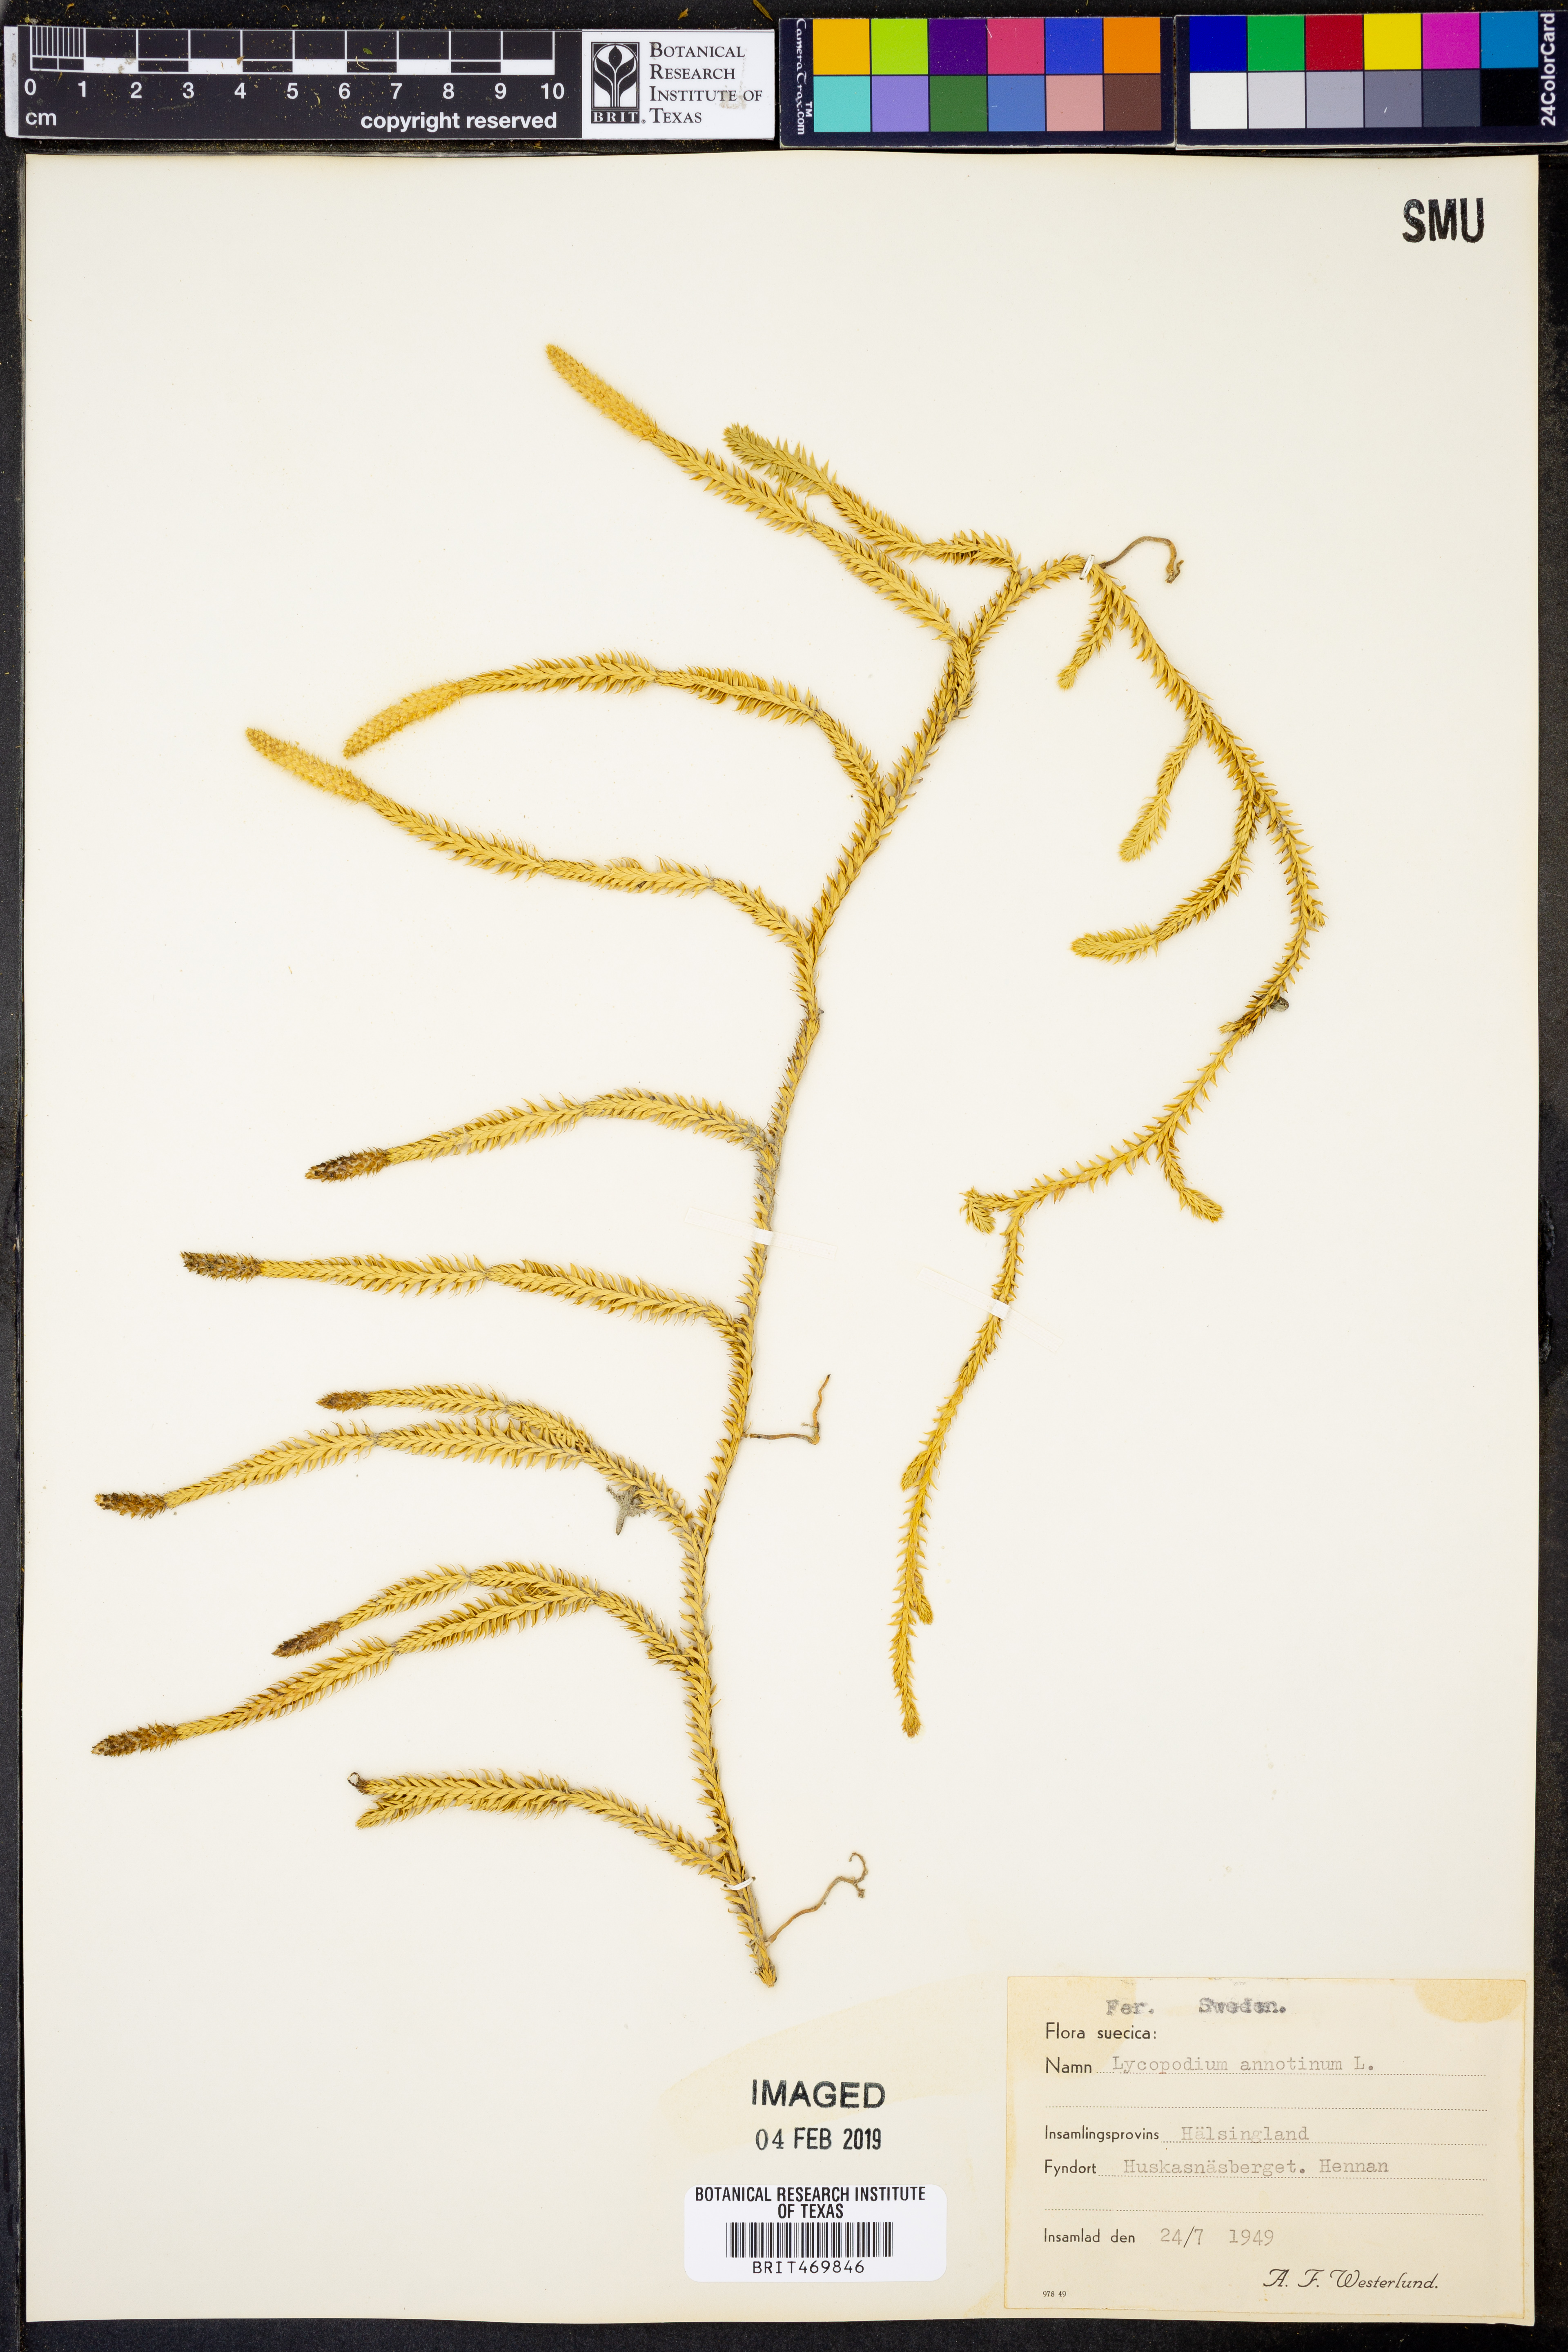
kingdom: Plantae
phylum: Tracheophyta
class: Lycopodiopsida
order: Lycopodiales
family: Lycopodiaceae
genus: Spinulum
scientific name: Spinulum annotinum
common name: Interrupted club-moss
